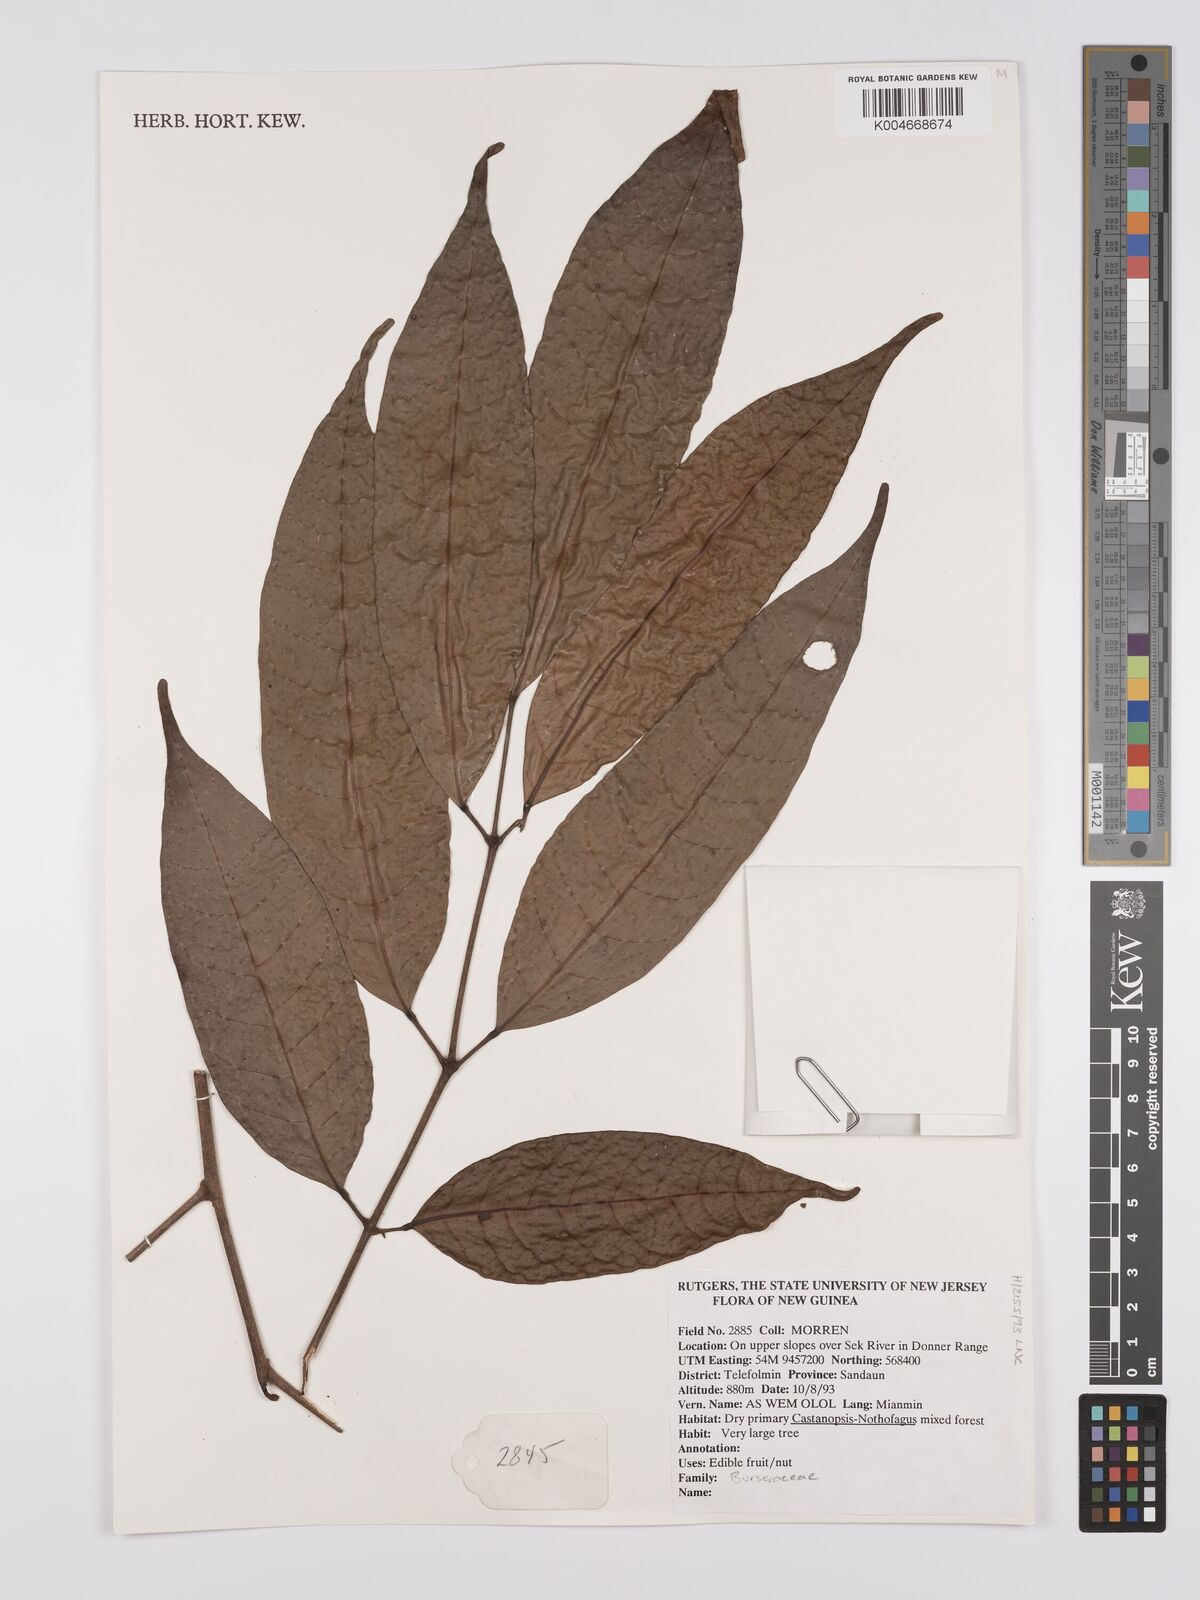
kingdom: Plantae
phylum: Tracheophyta
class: Magnoliopsida
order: Sapindales
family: Burseraceae
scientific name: Burseraceae
